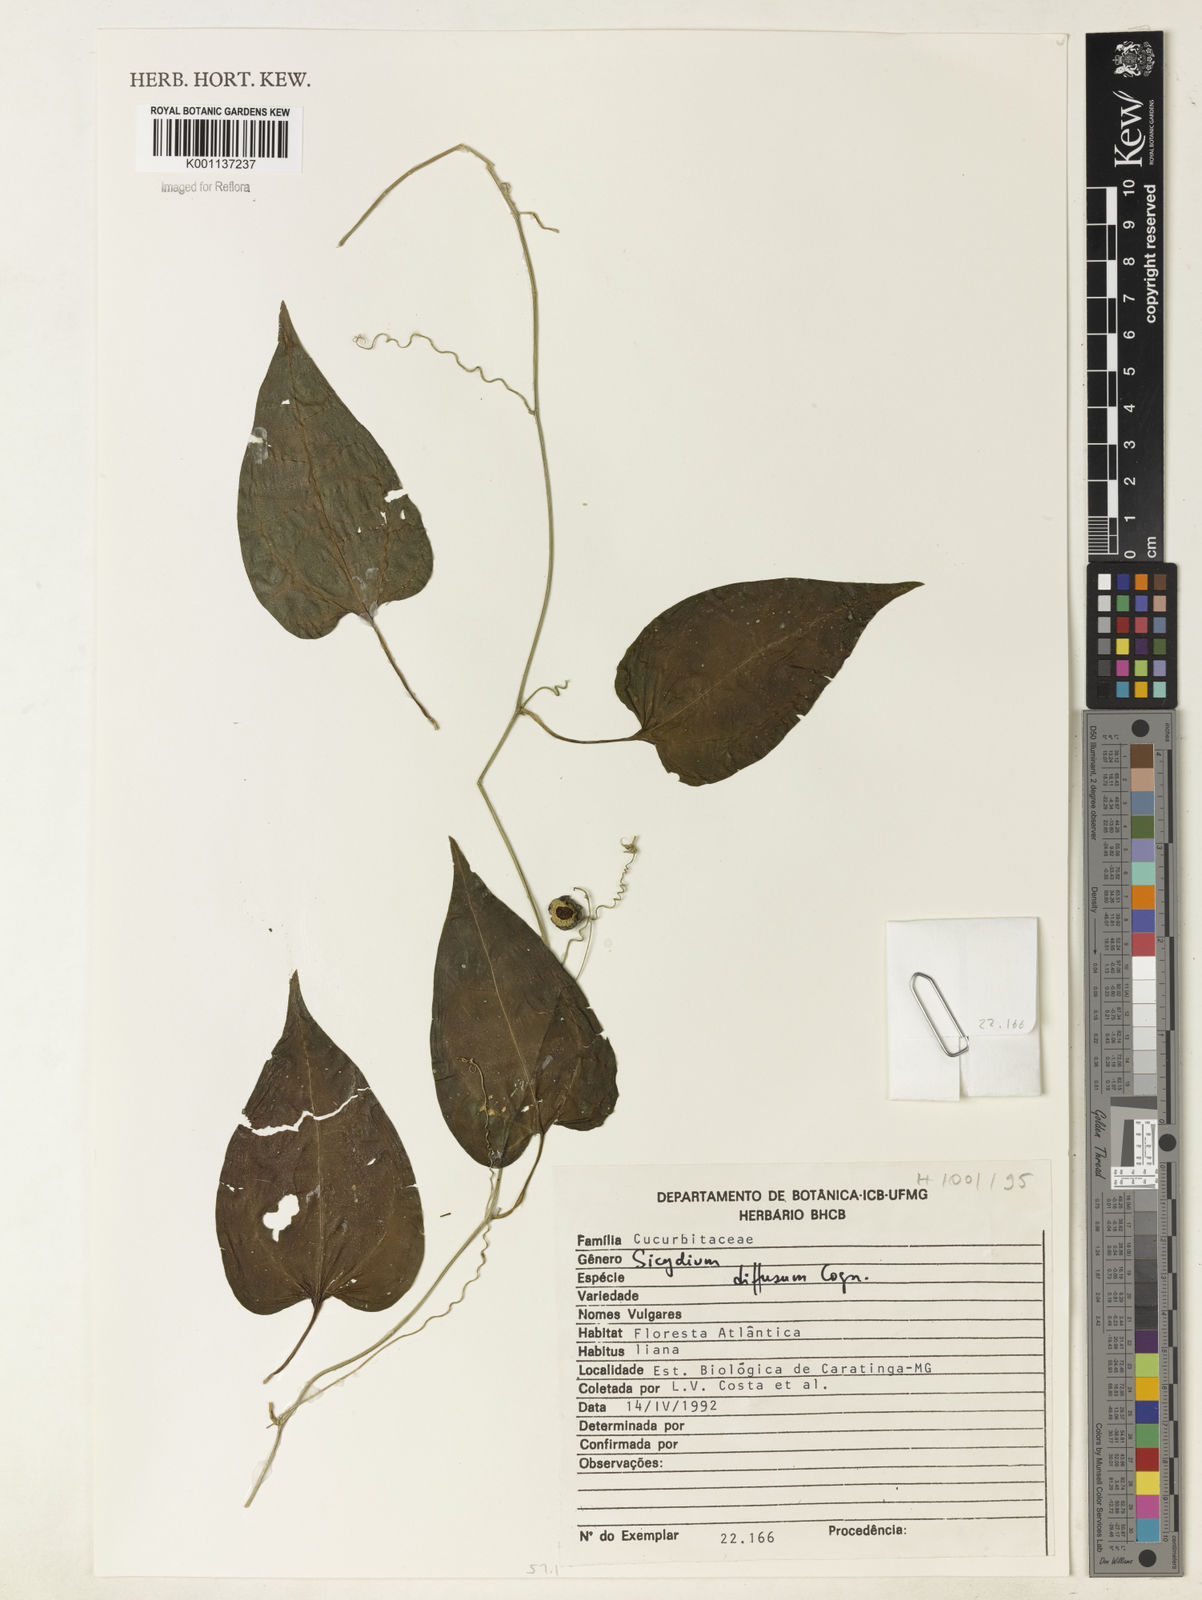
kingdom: Plantae
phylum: Tracheophyta
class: Magnoliopsida
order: Cucurbitales
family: Cucurbitaceae
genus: Sicydium
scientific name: Sicydium diffusum
